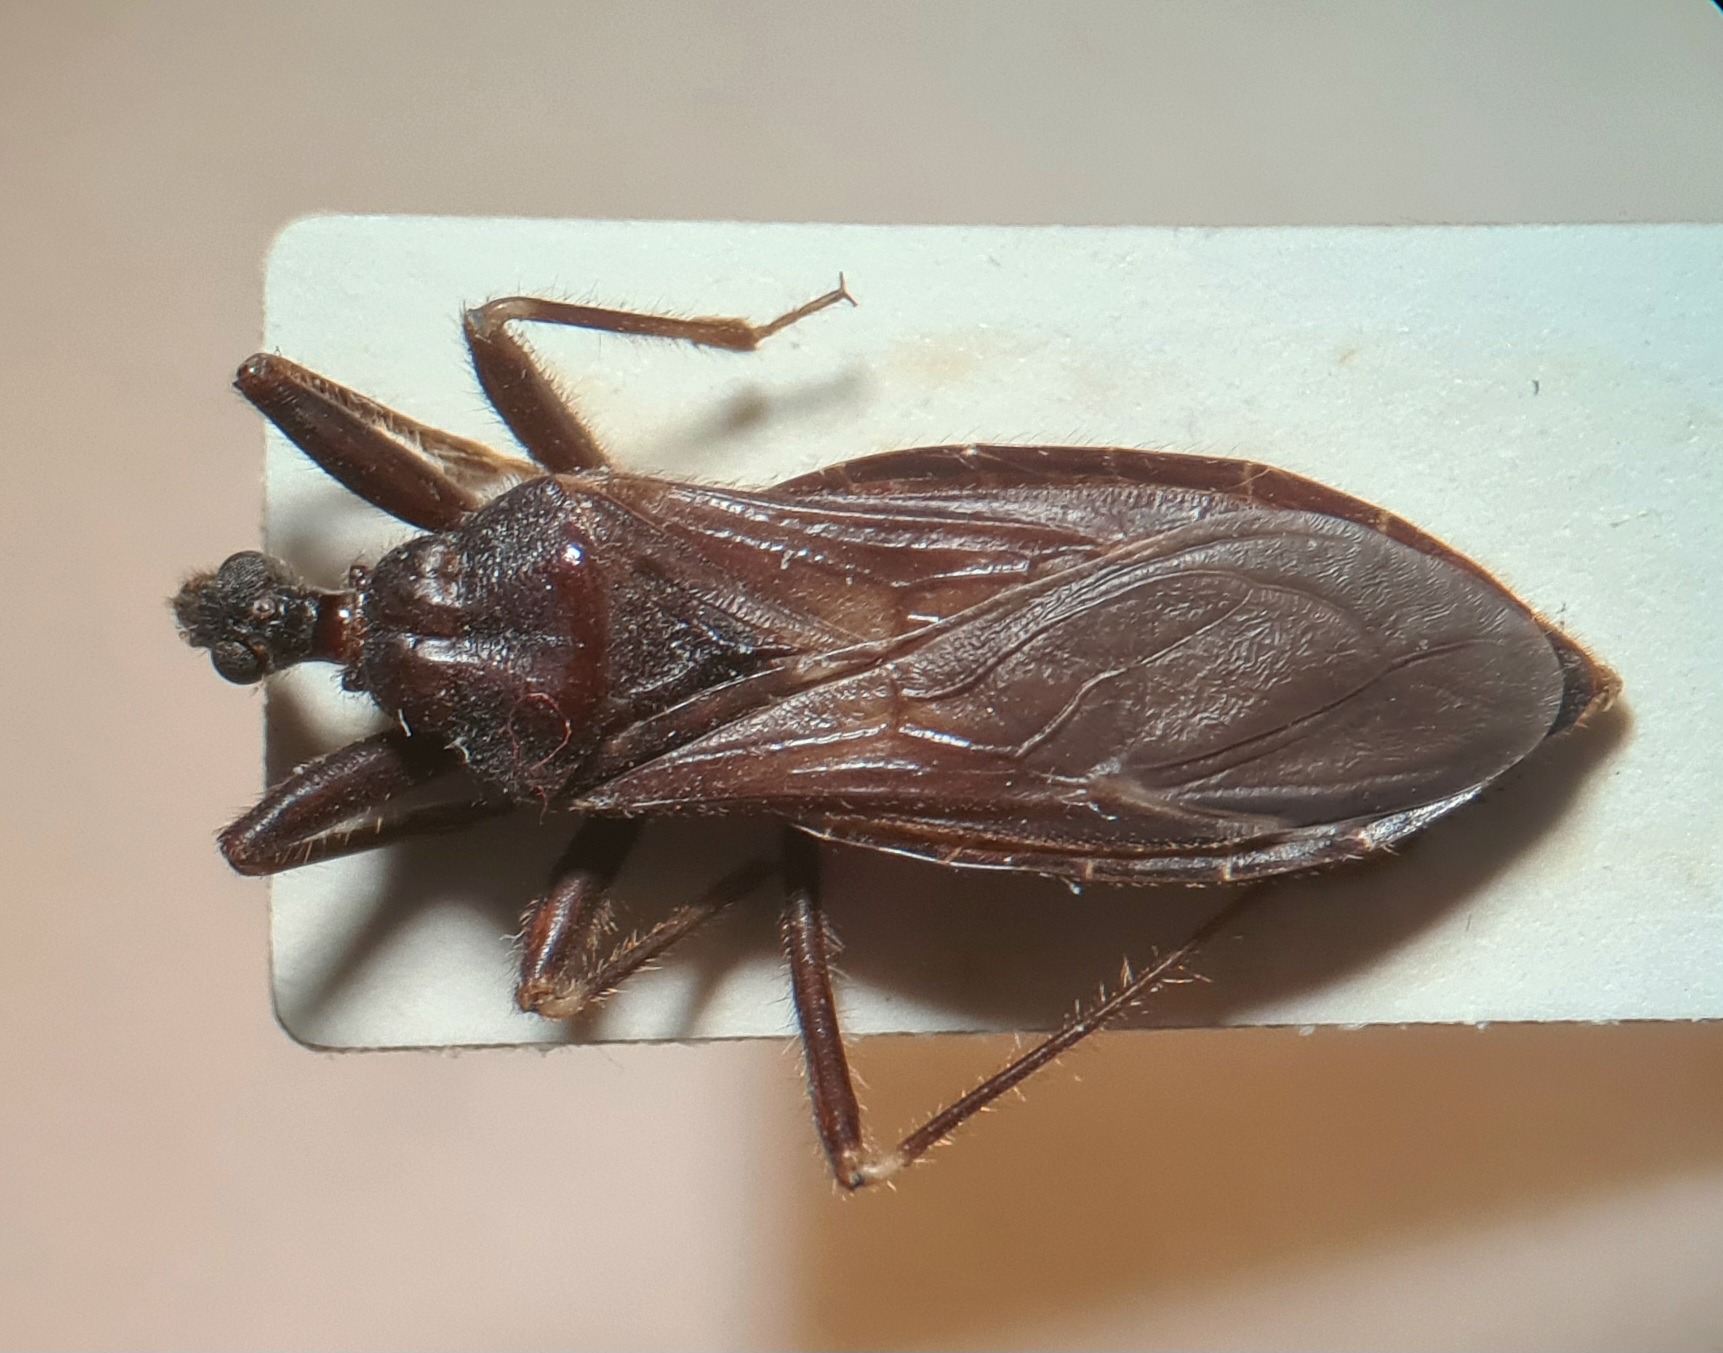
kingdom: Animalia
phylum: Arthropoda
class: Insecta
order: Hemiptera
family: Reduviidae
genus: Reduvius
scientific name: Reduvius personatus
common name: Skarntæge
